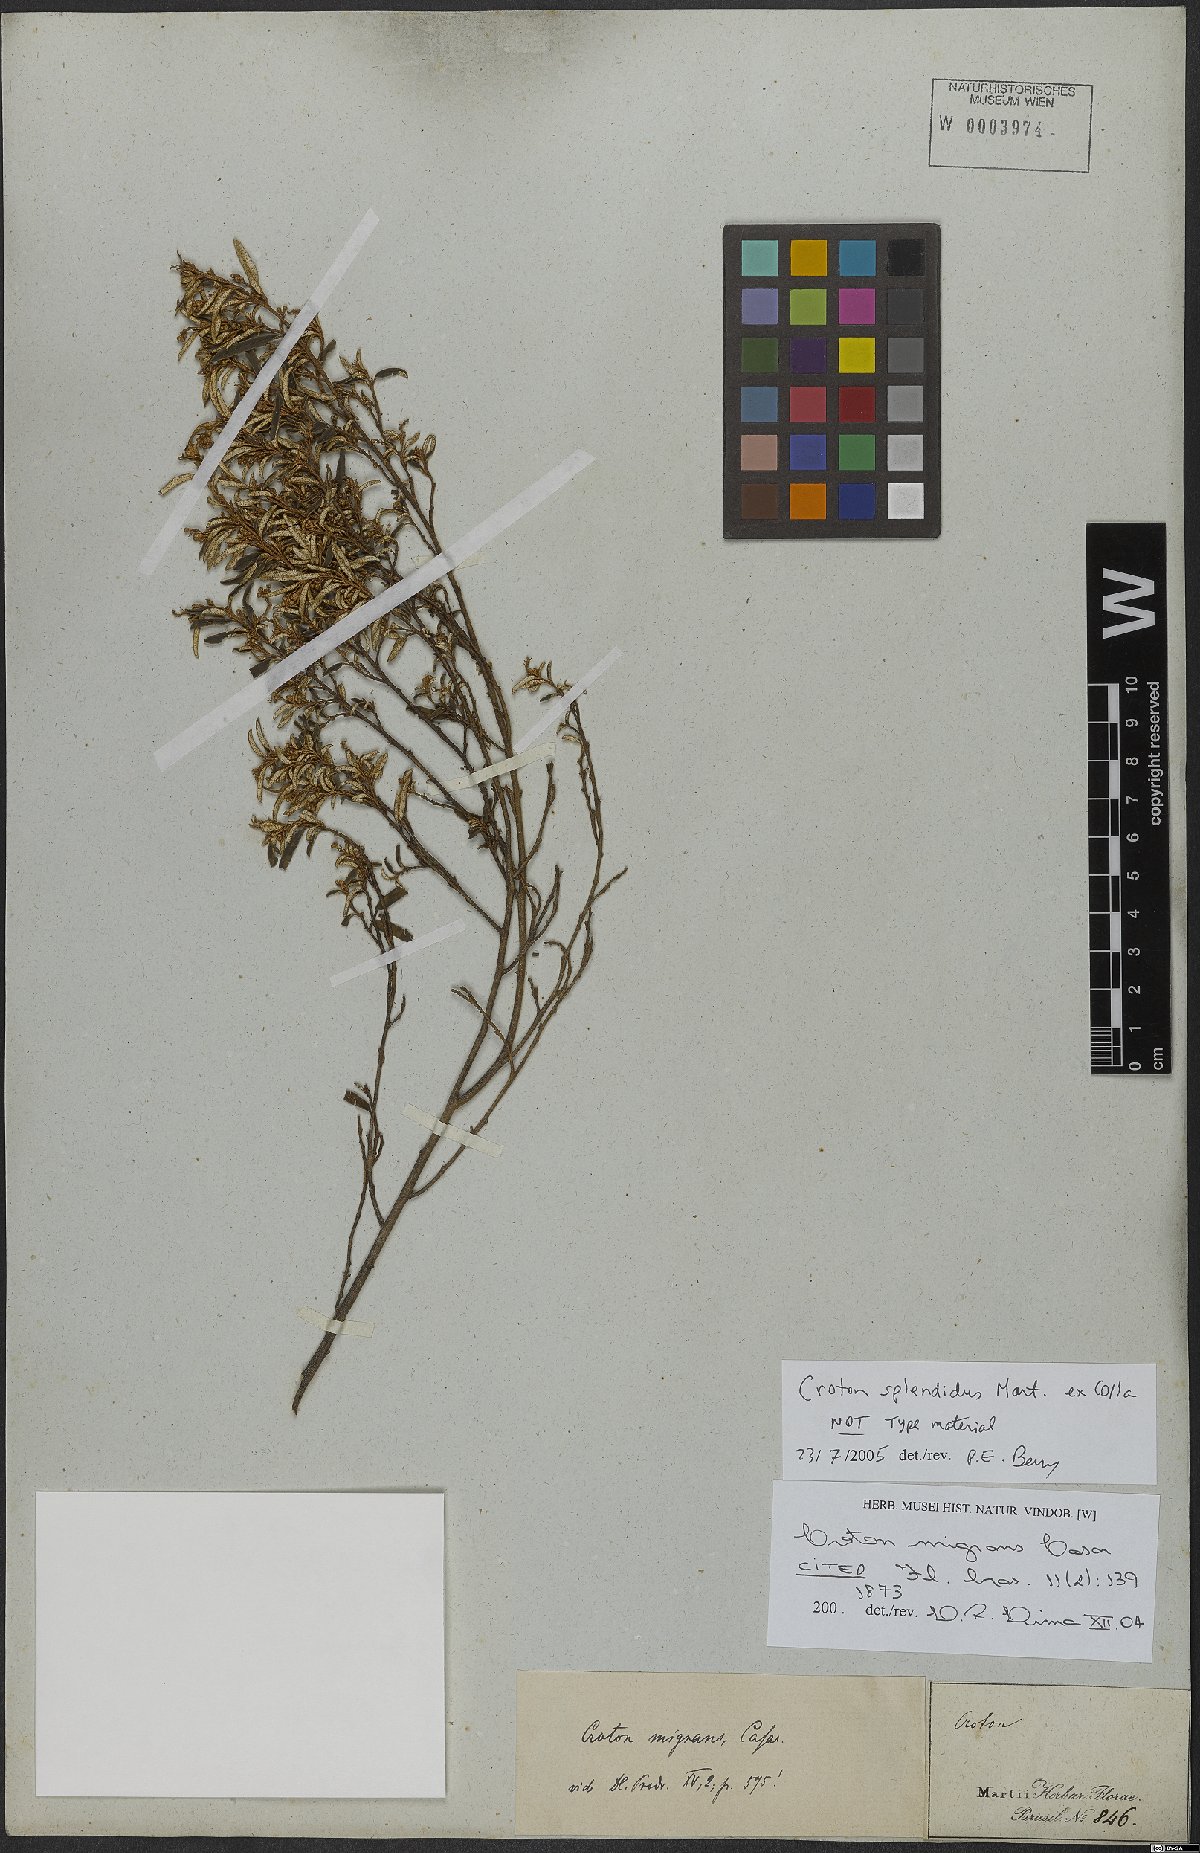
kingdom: Plantae
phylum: Tracheophyta
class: Magnoliopsida
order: Malpighiales
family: Euphorbiaceae
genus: Croton
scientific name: Croton splendidus
